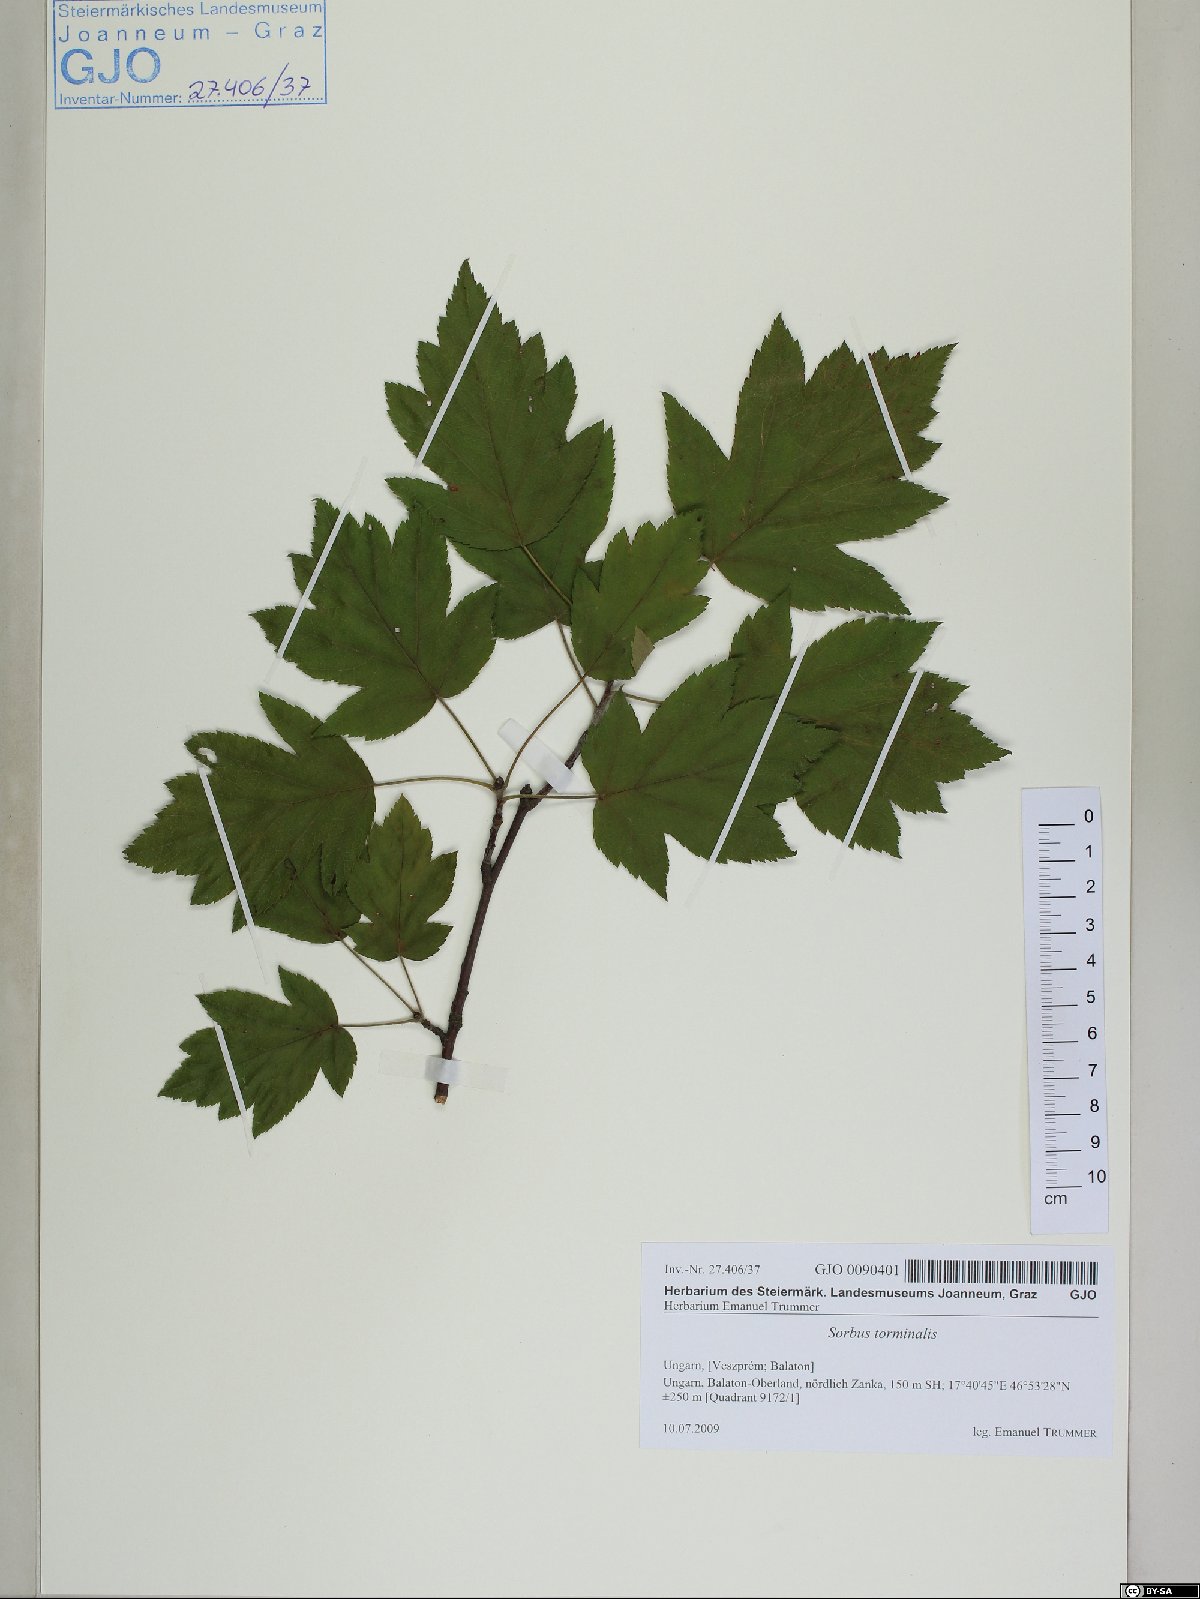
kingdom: Plantae
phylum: Tracheophyta
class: Magnoliopsida
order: Rosales
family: Rosaceae
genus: Torminalis
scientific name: Torminalis glaberrima
